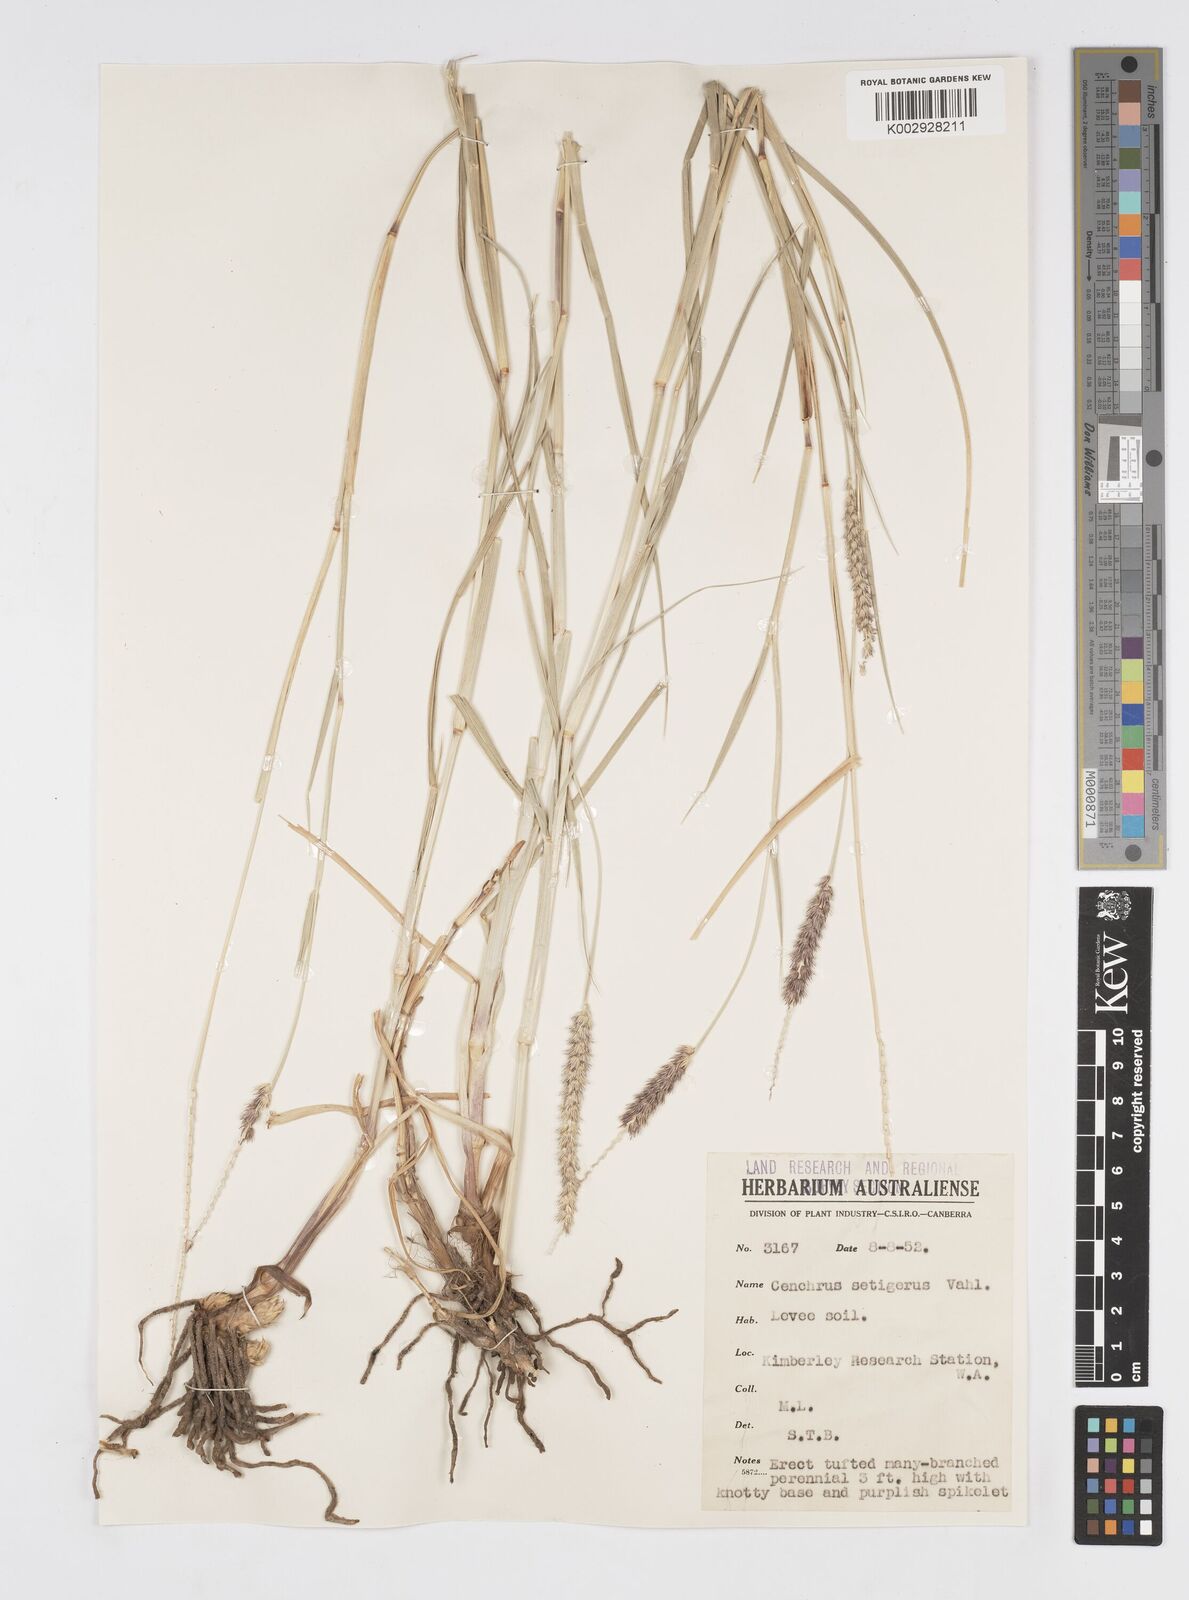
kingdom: Plantae
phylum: Tracheophyta
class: Liliopsida
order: Poales
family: Poaceae
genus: Cenchrus
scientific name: Cenchrus setigerus
